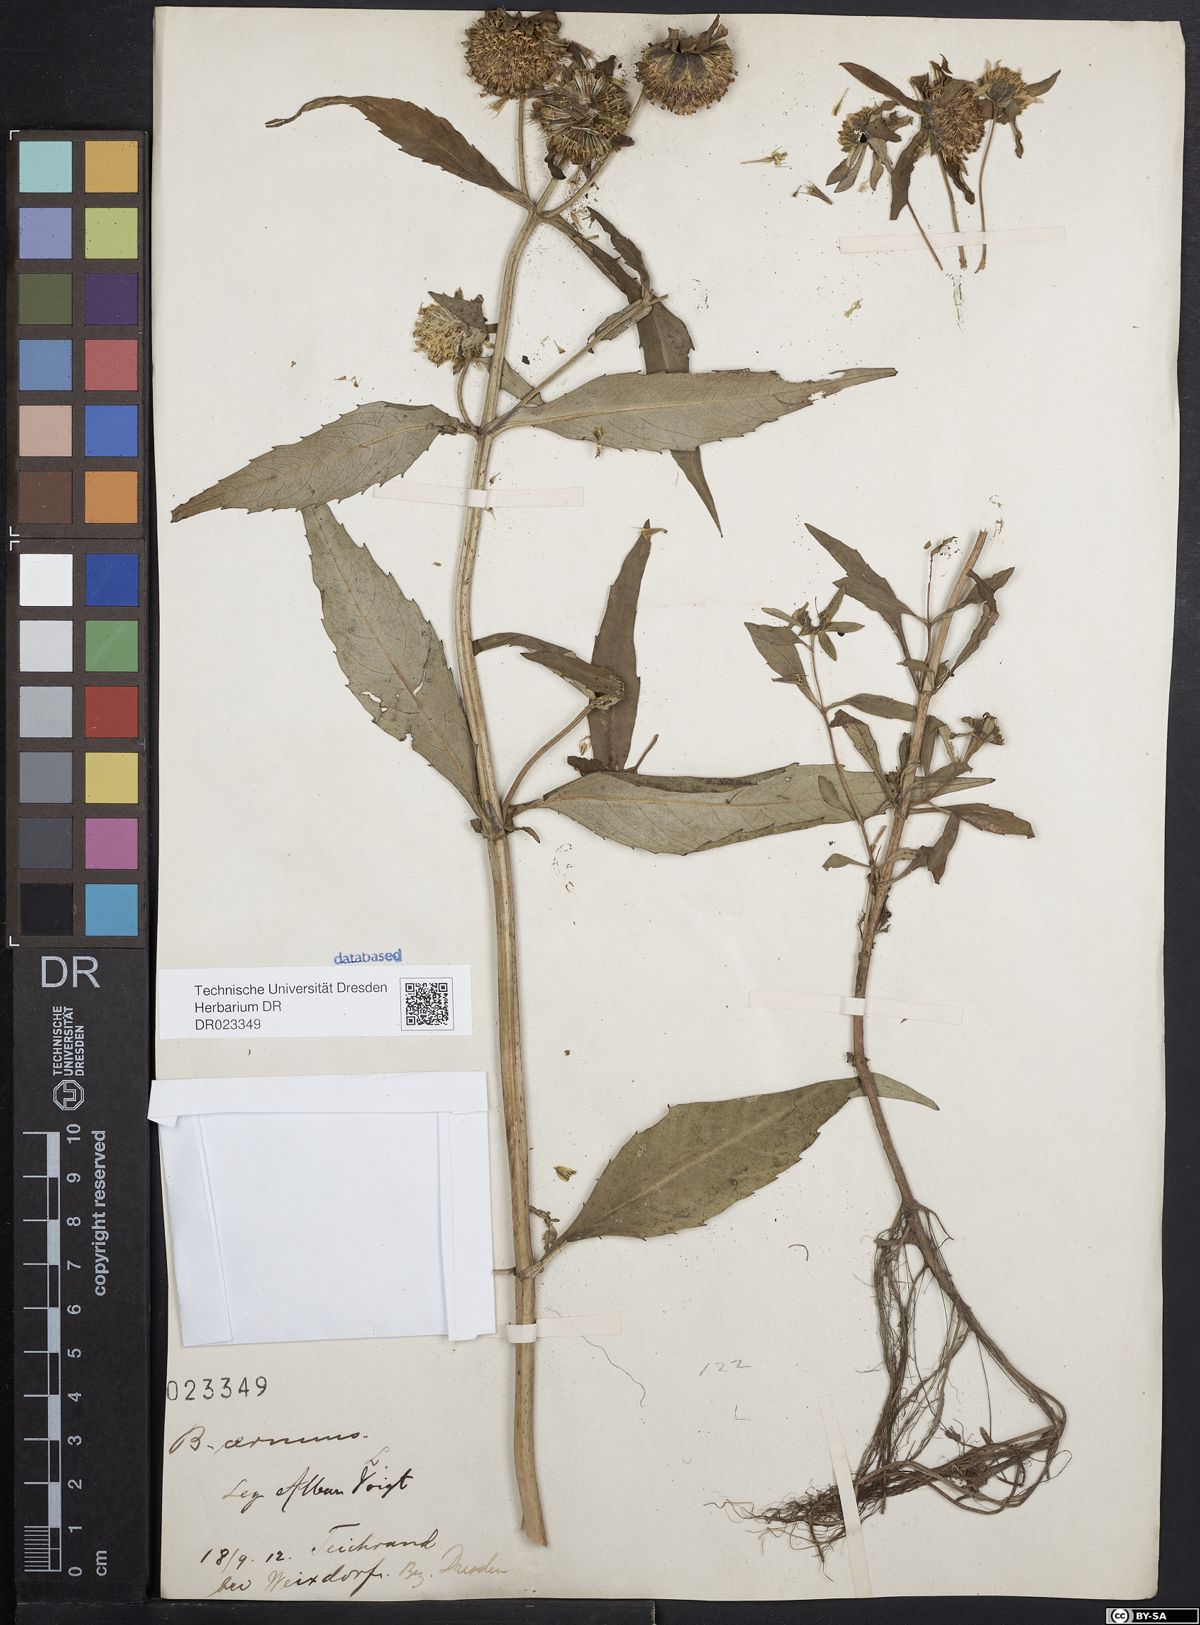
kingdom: Plantae
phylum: Tracheophyta
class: Magnoliopsida
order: Asterales
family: Asteraceae
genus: Bidens
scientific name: Bidens cernua
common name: Nodding bur-marigold
